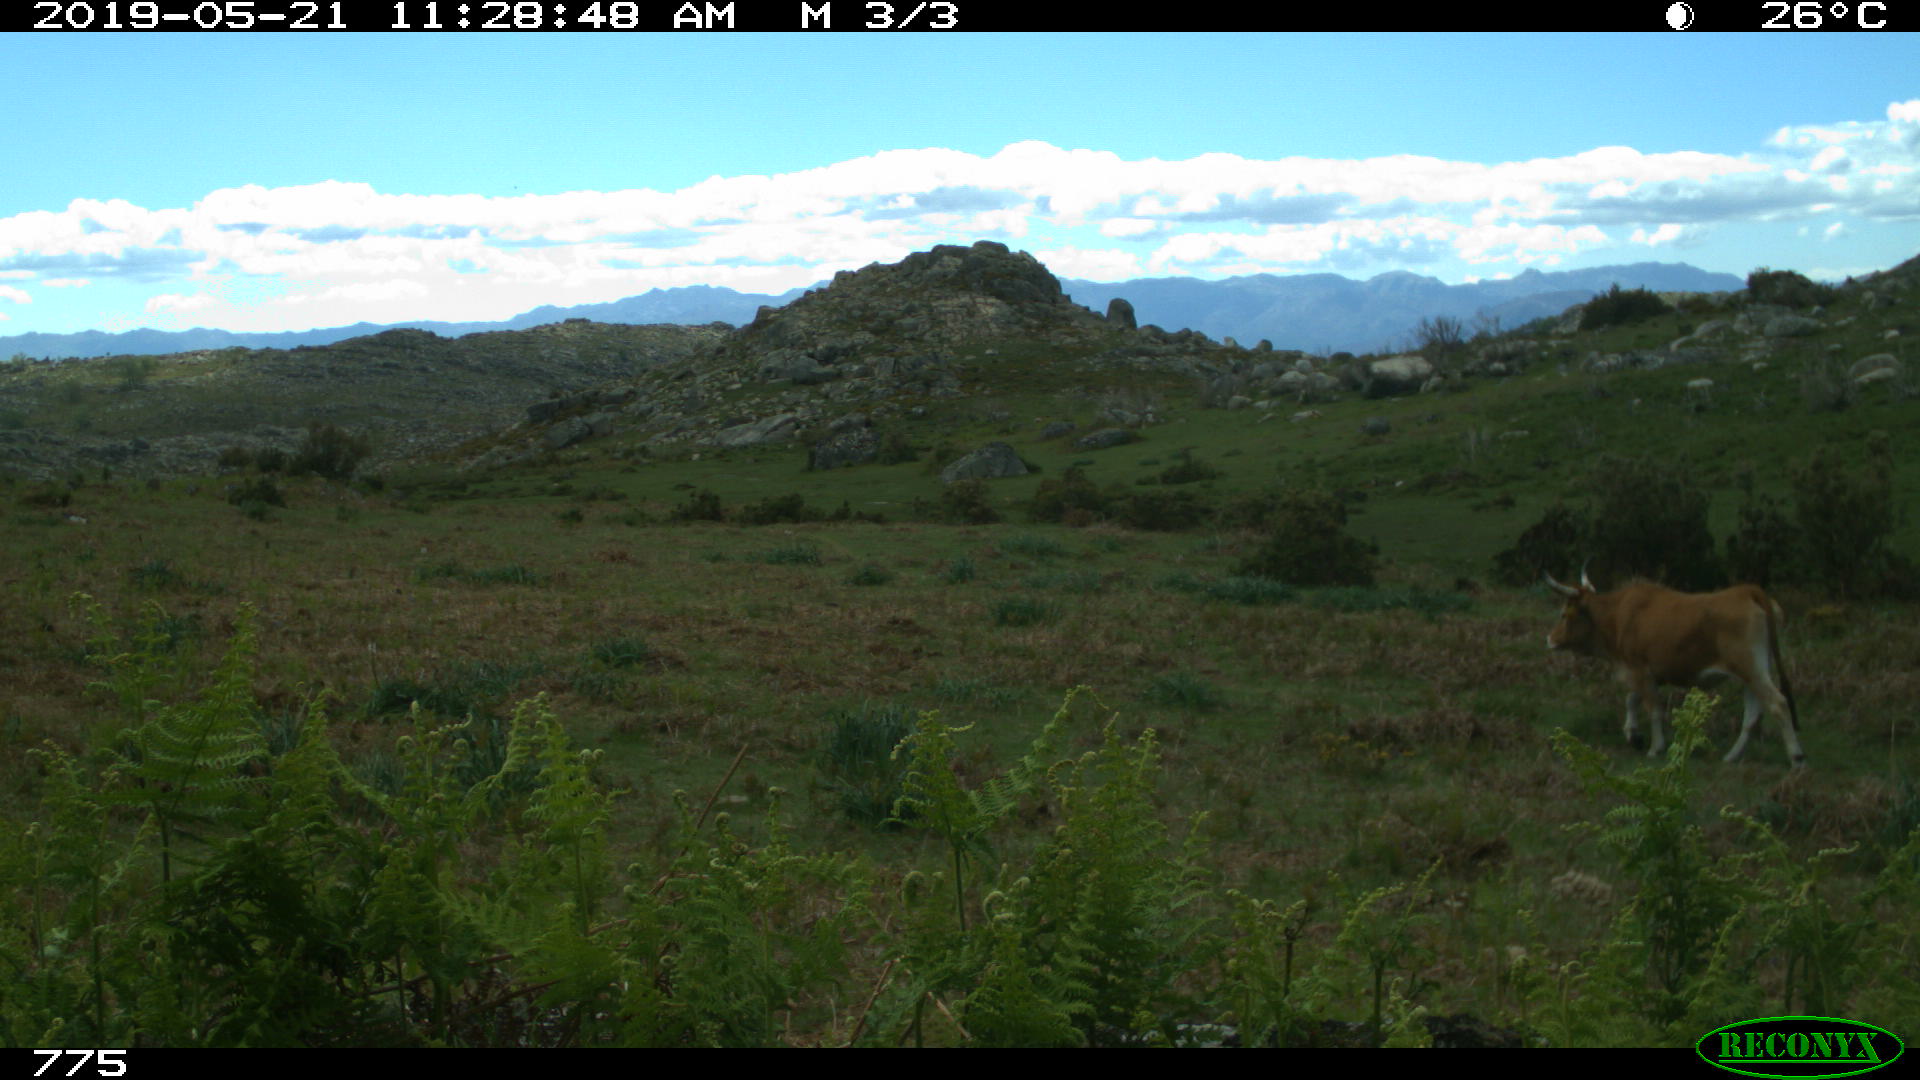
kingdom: Animalia
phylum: Chordata
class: Mammalia
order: Artiodactyla
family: Bovidae
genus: Bos
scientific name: Bos taurus
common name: Domesticated cattle
